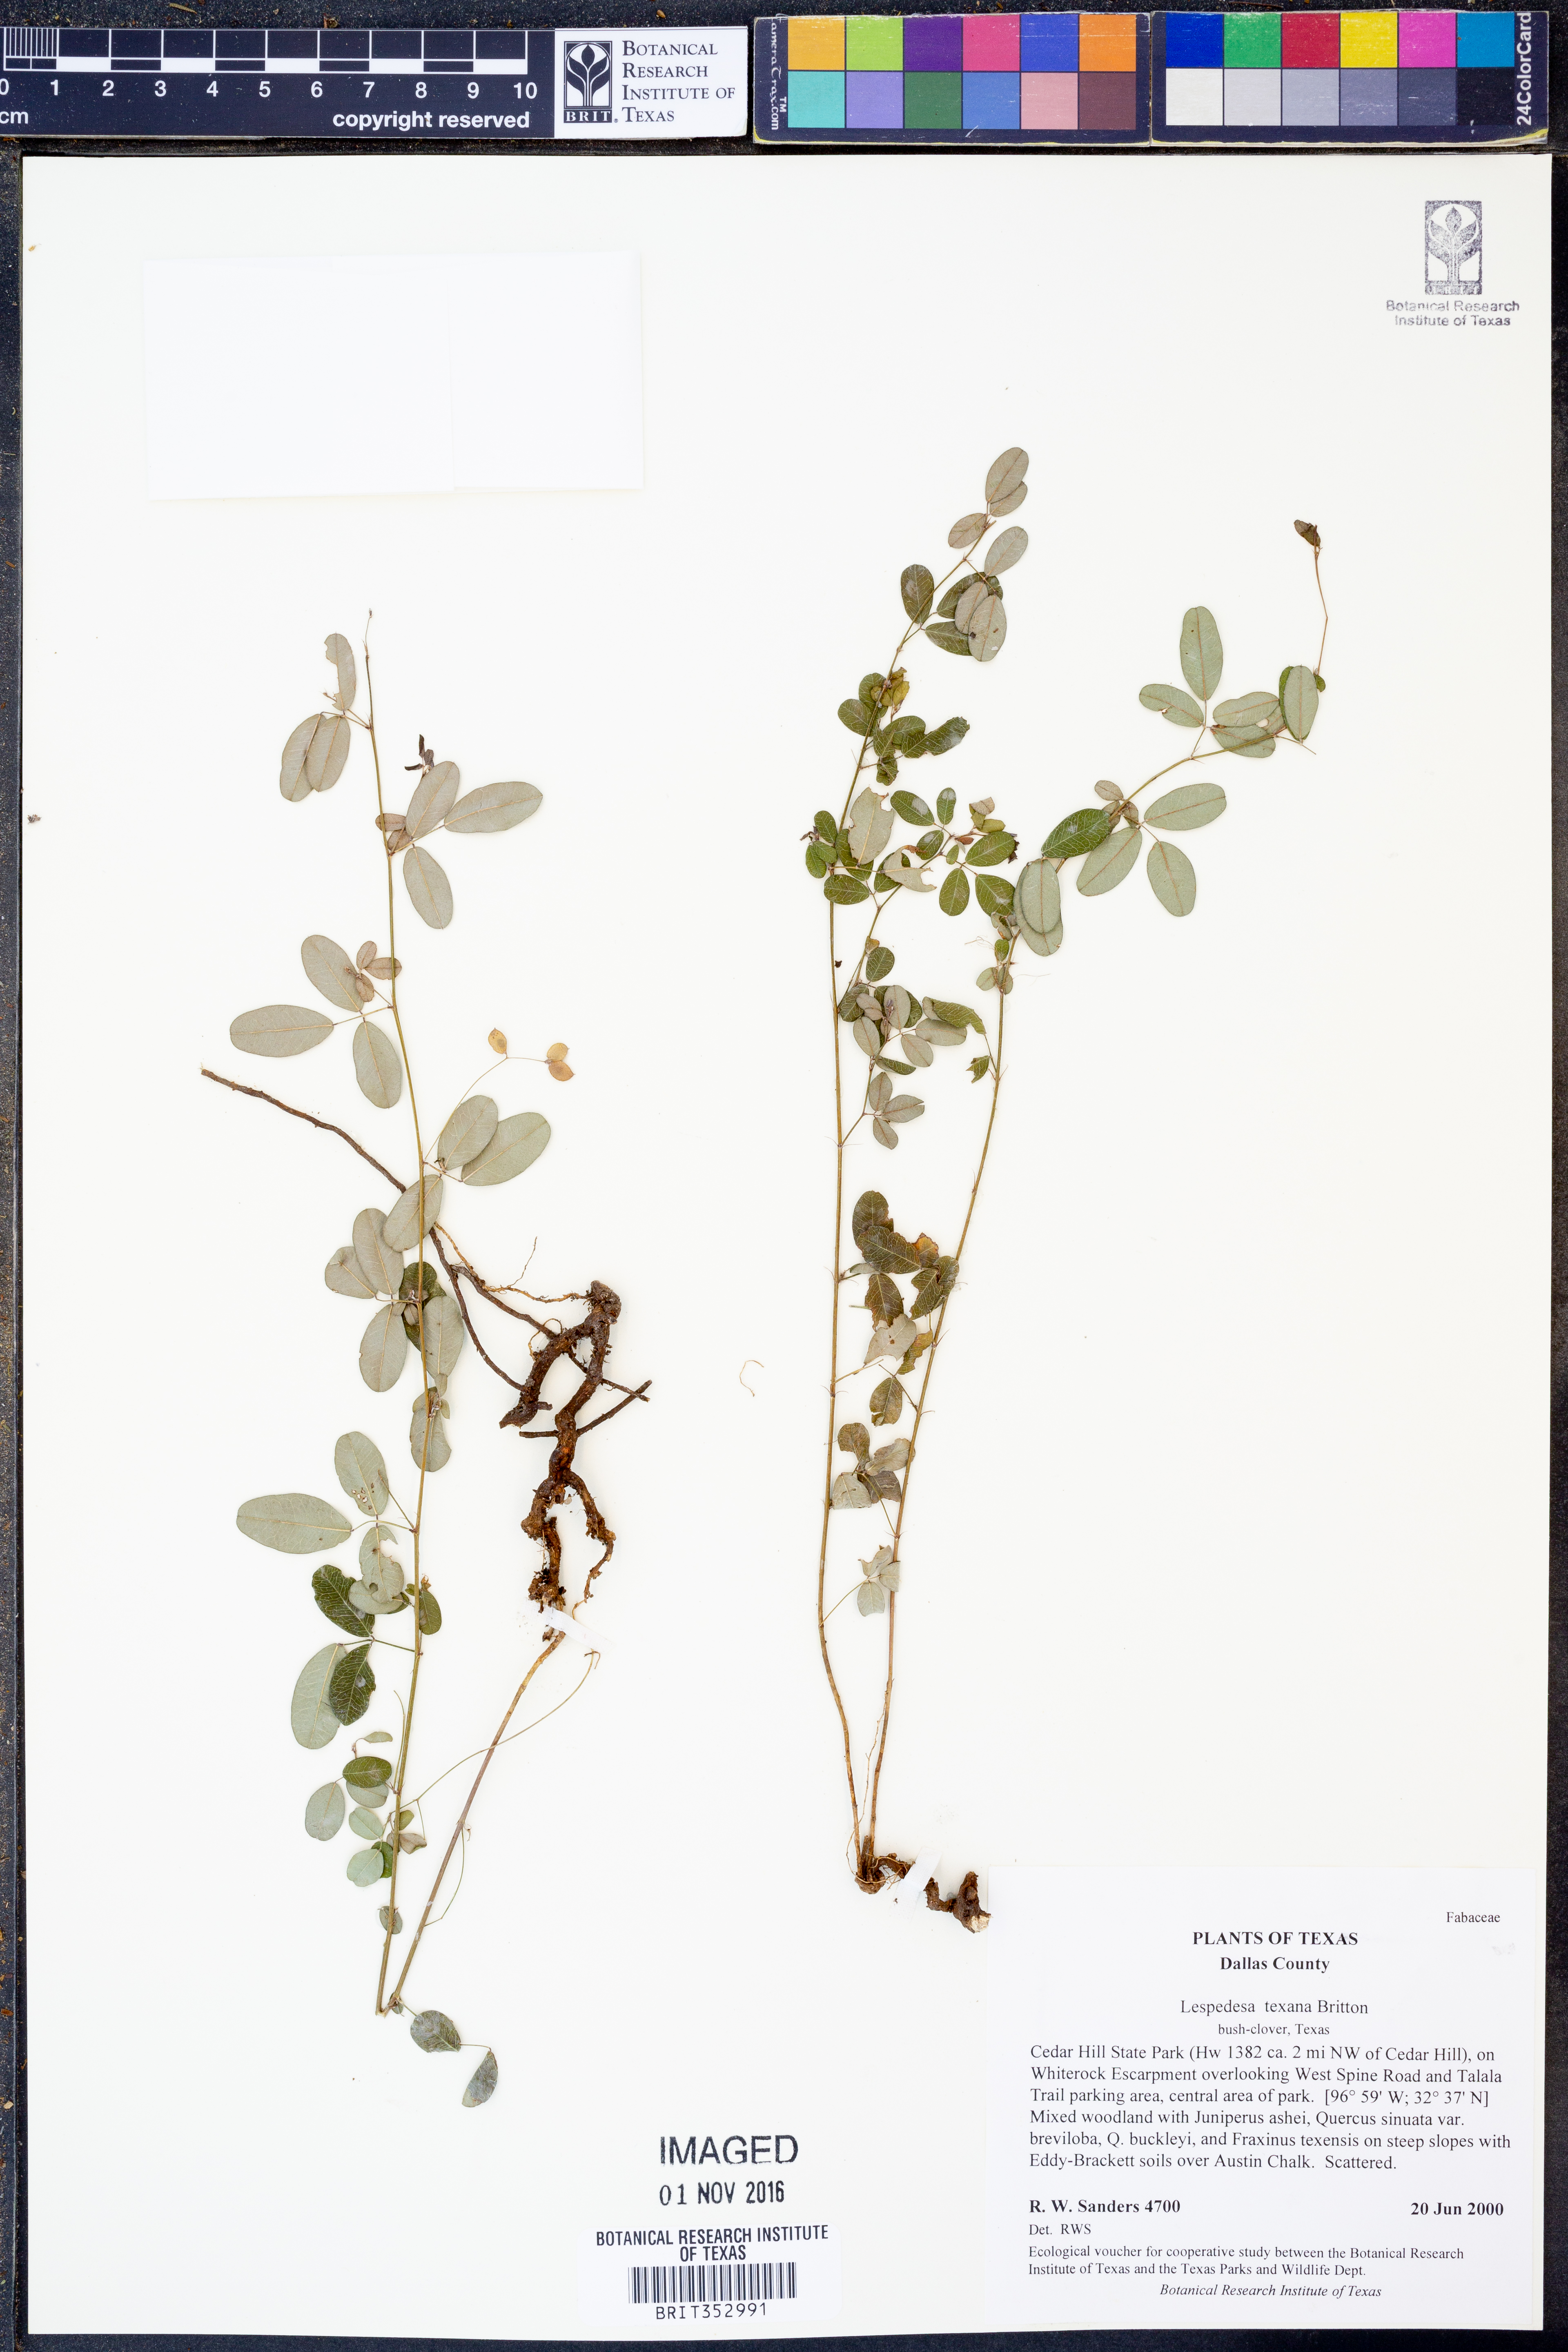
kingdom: Plantae
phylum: Tracheophyta
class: Magnoliopsida
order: Fabales
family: Fabaceae
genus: Lespedeza
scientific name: Lespedeza texana
